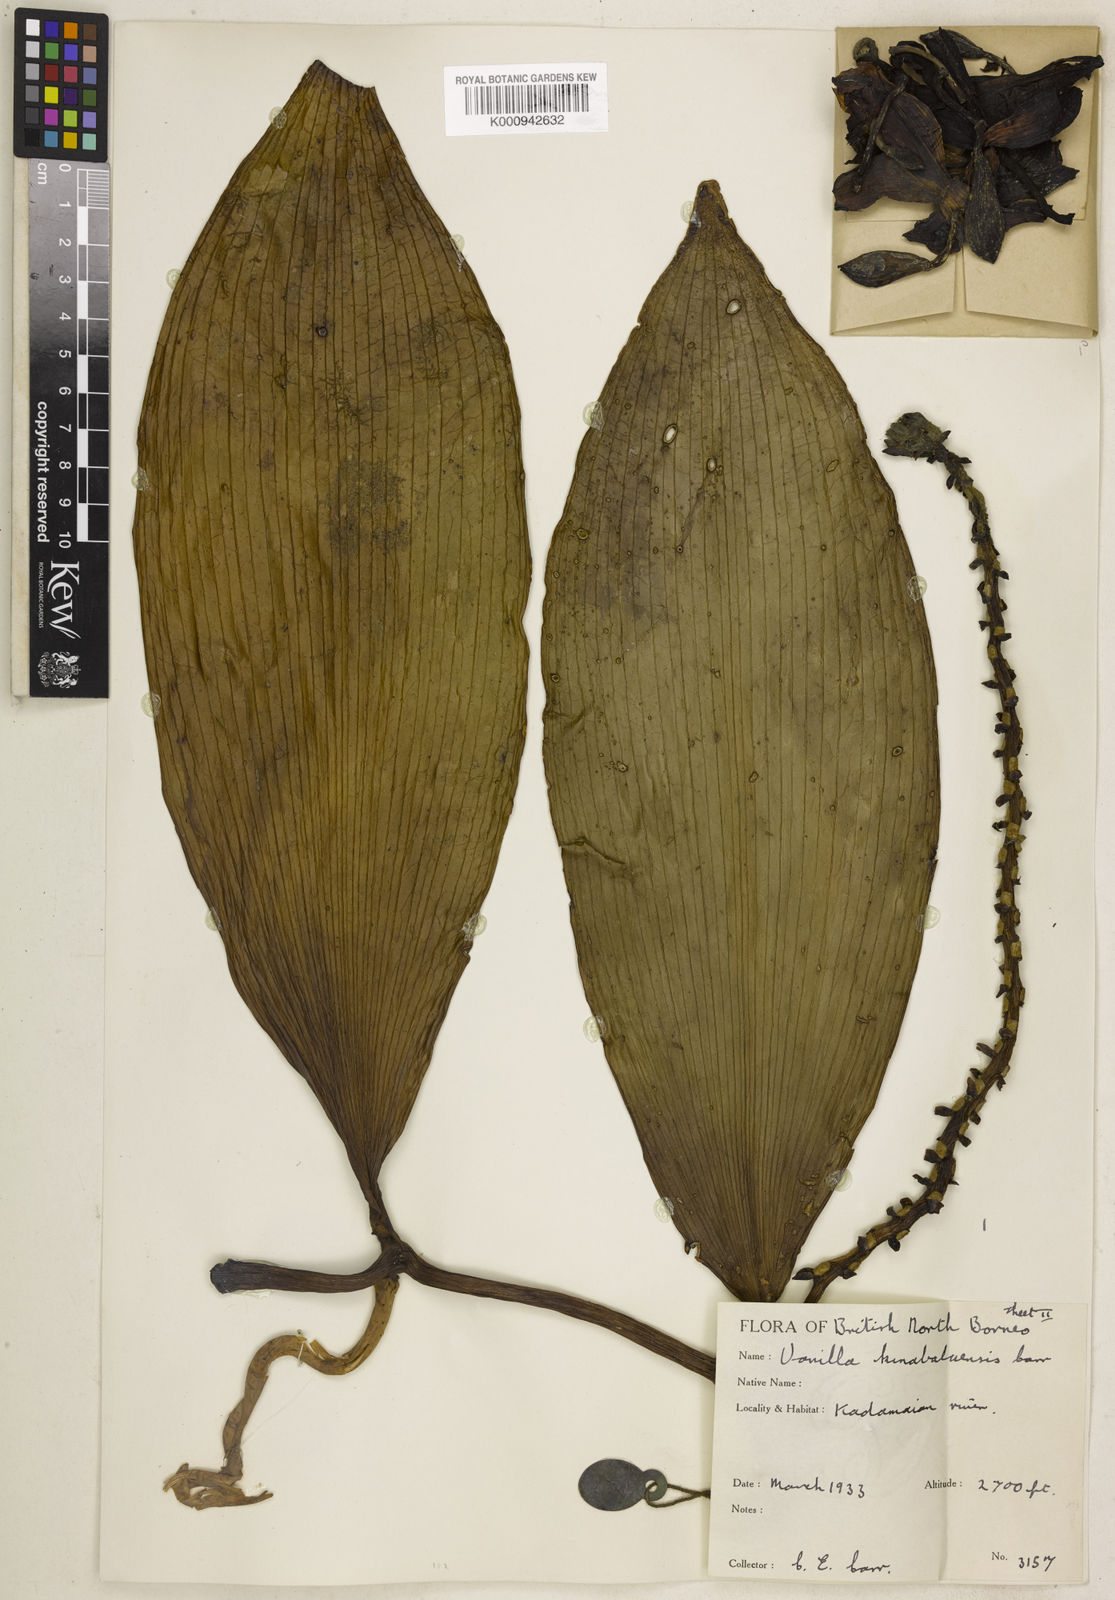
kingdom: Plantae
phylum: Tracheophyta
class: Liliopsida
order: Asparagales
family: Orchidaceae
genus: Vanilla
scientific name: Vanilla kinabaluensis
